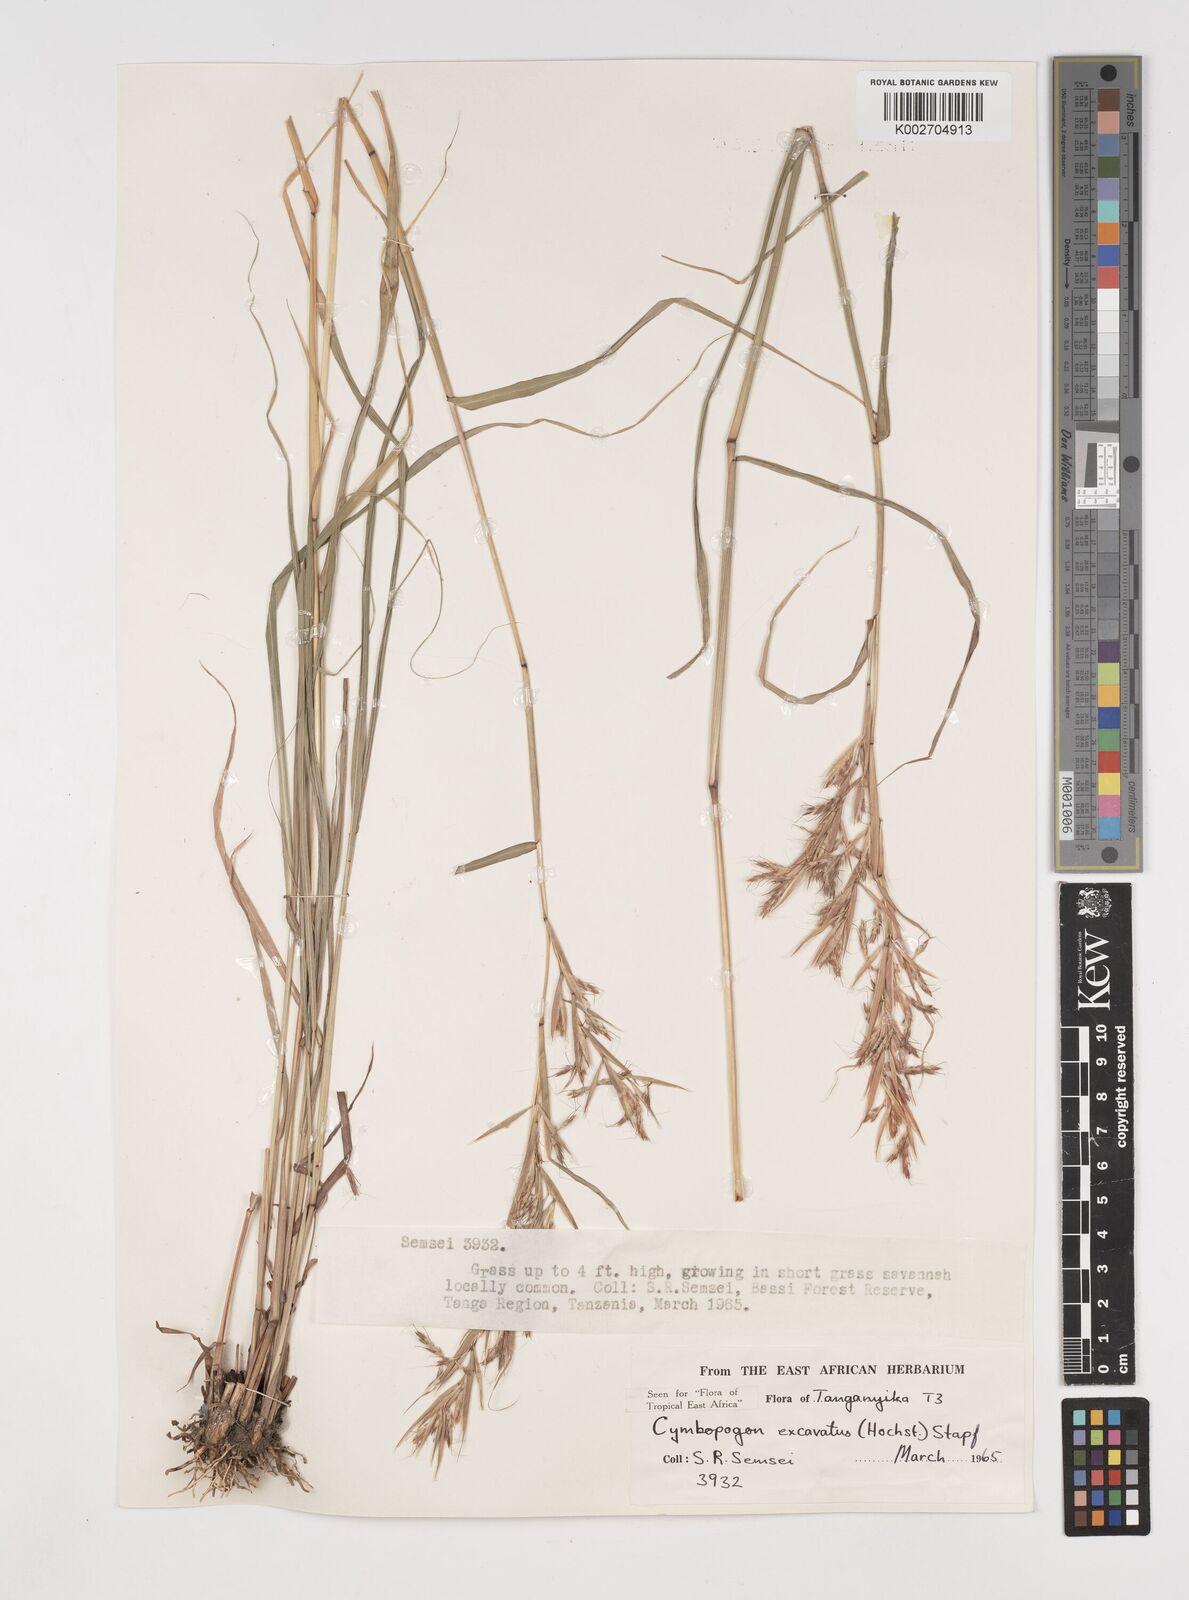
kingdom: Plantae
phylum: Tracheophyta
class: Liliopsida
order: Poales
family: Poaceae
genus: Cymbopogon
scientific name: Cymbopogon caesius
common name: Kachi grass
